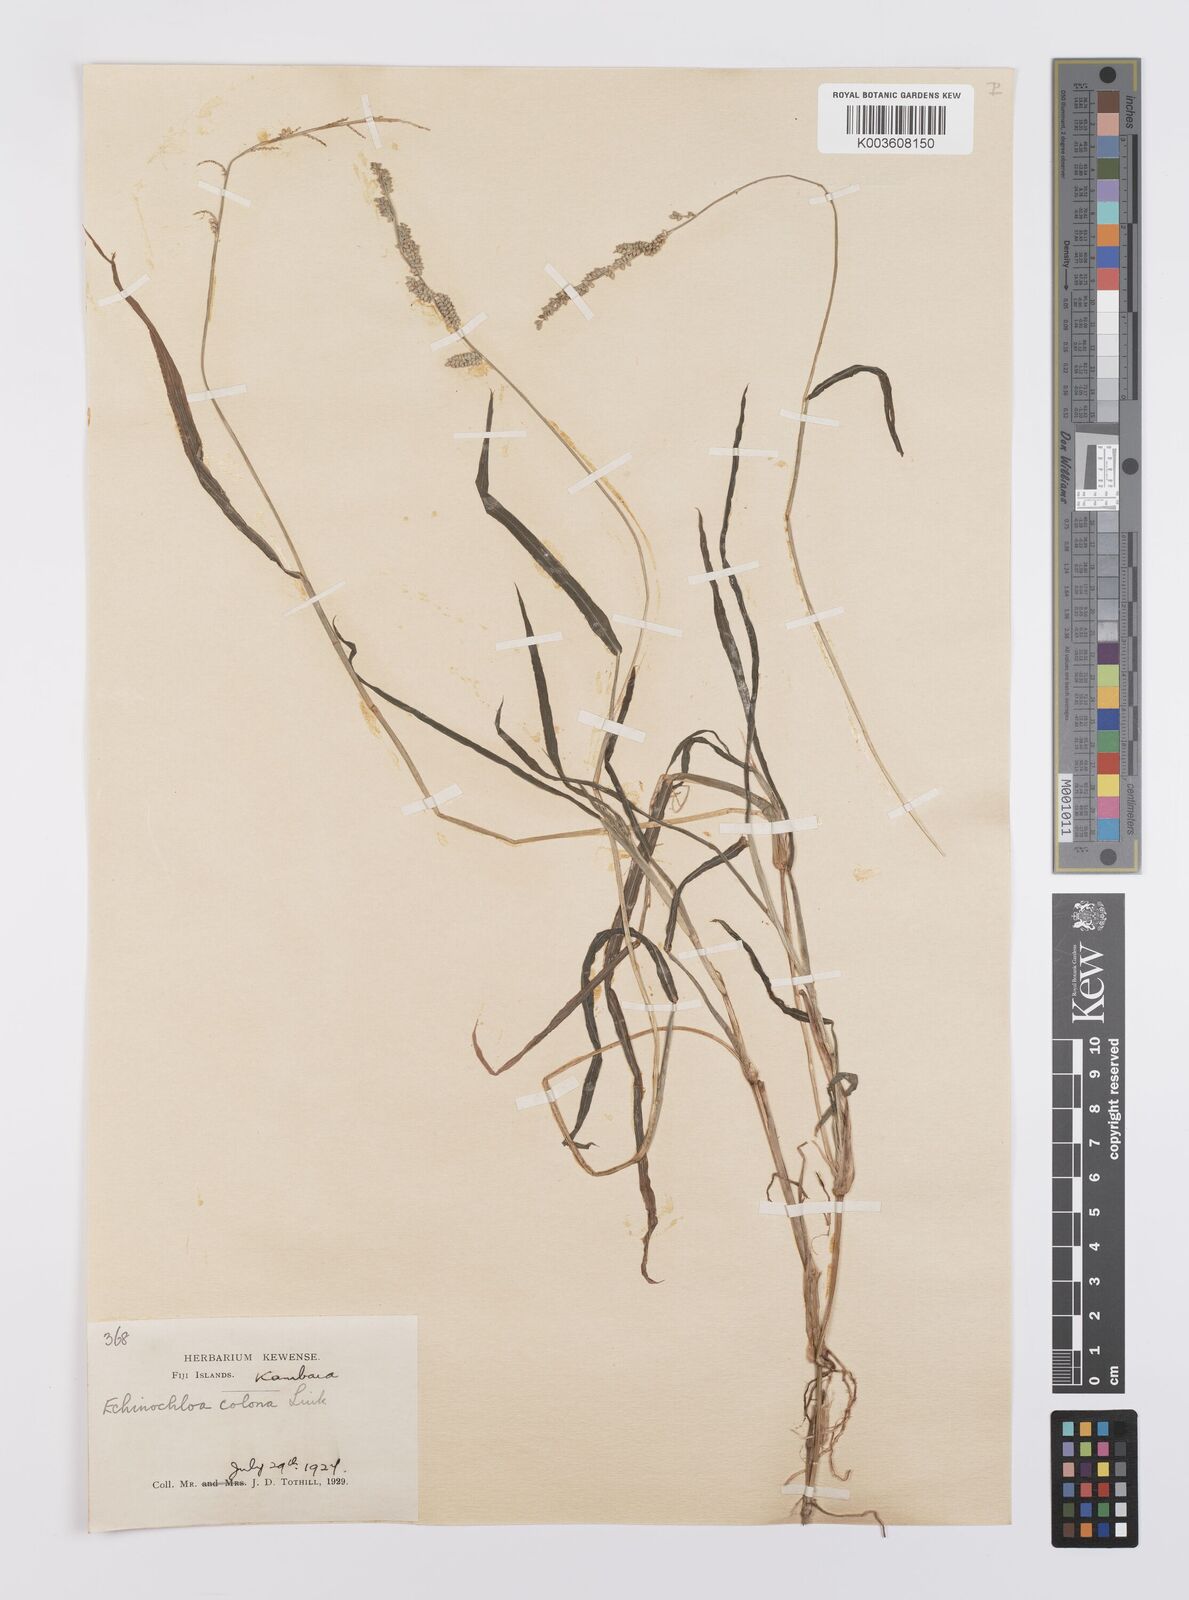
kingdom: Plantae
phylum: Tracheophyta
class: Liliopsida
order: Poales
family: Poaceae
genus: Echinochloa
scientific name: Echinochloa colonum
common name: Jungle rice
